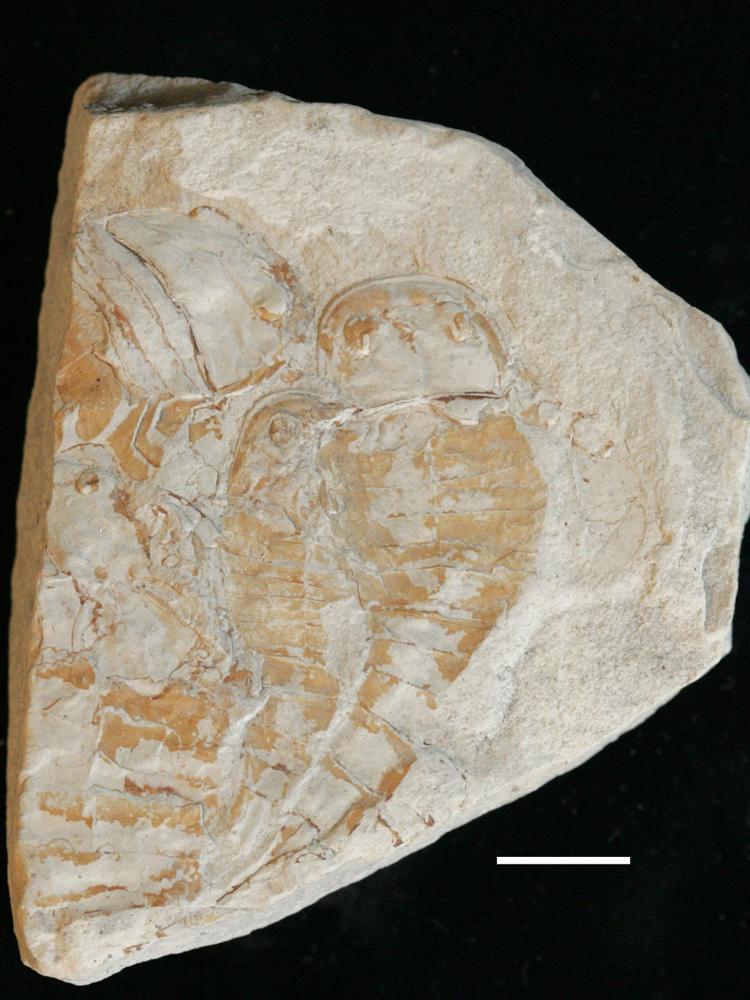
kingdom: Animalia
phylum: Arthropoda
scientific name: Arthropoda
